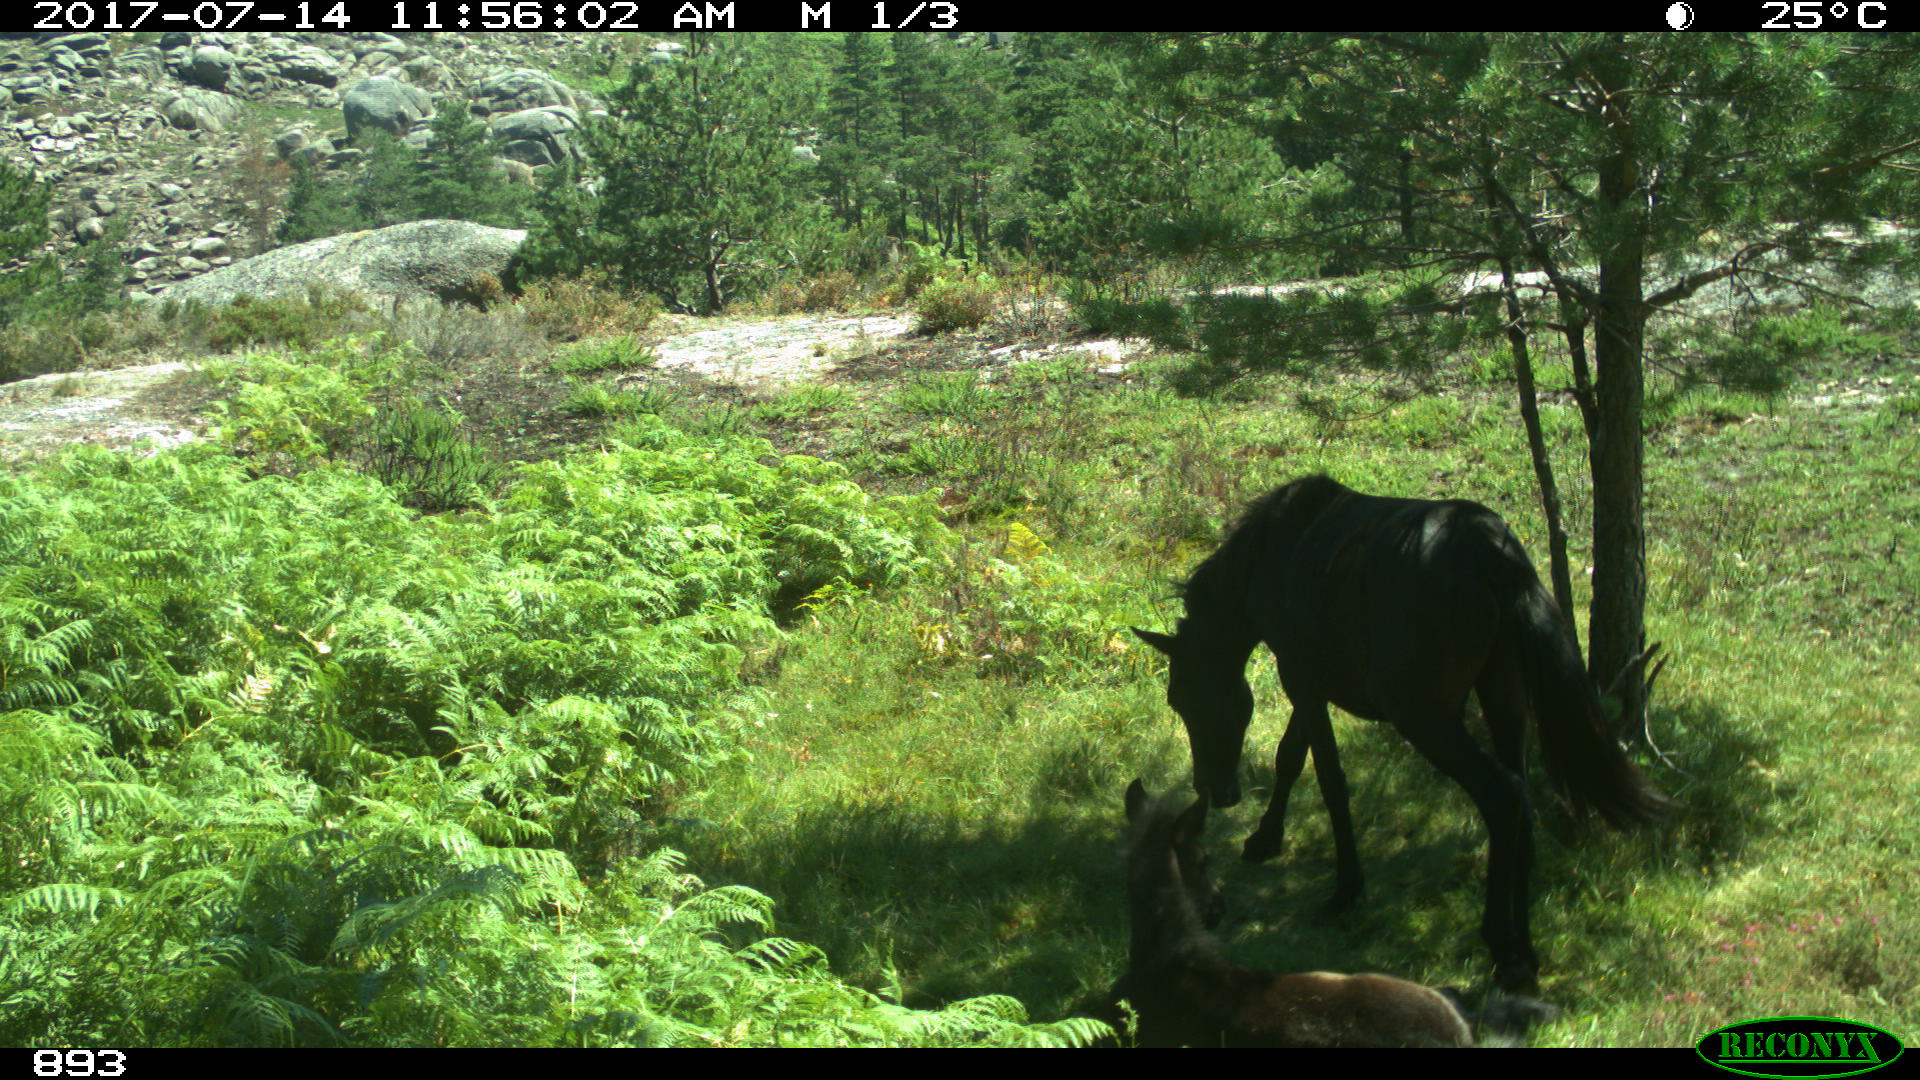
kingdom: Animalia
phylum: Chordata
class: Mammalia
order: Perissodactyla
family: Equidae
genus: Equus
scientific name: Equus caballus
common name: Horse
